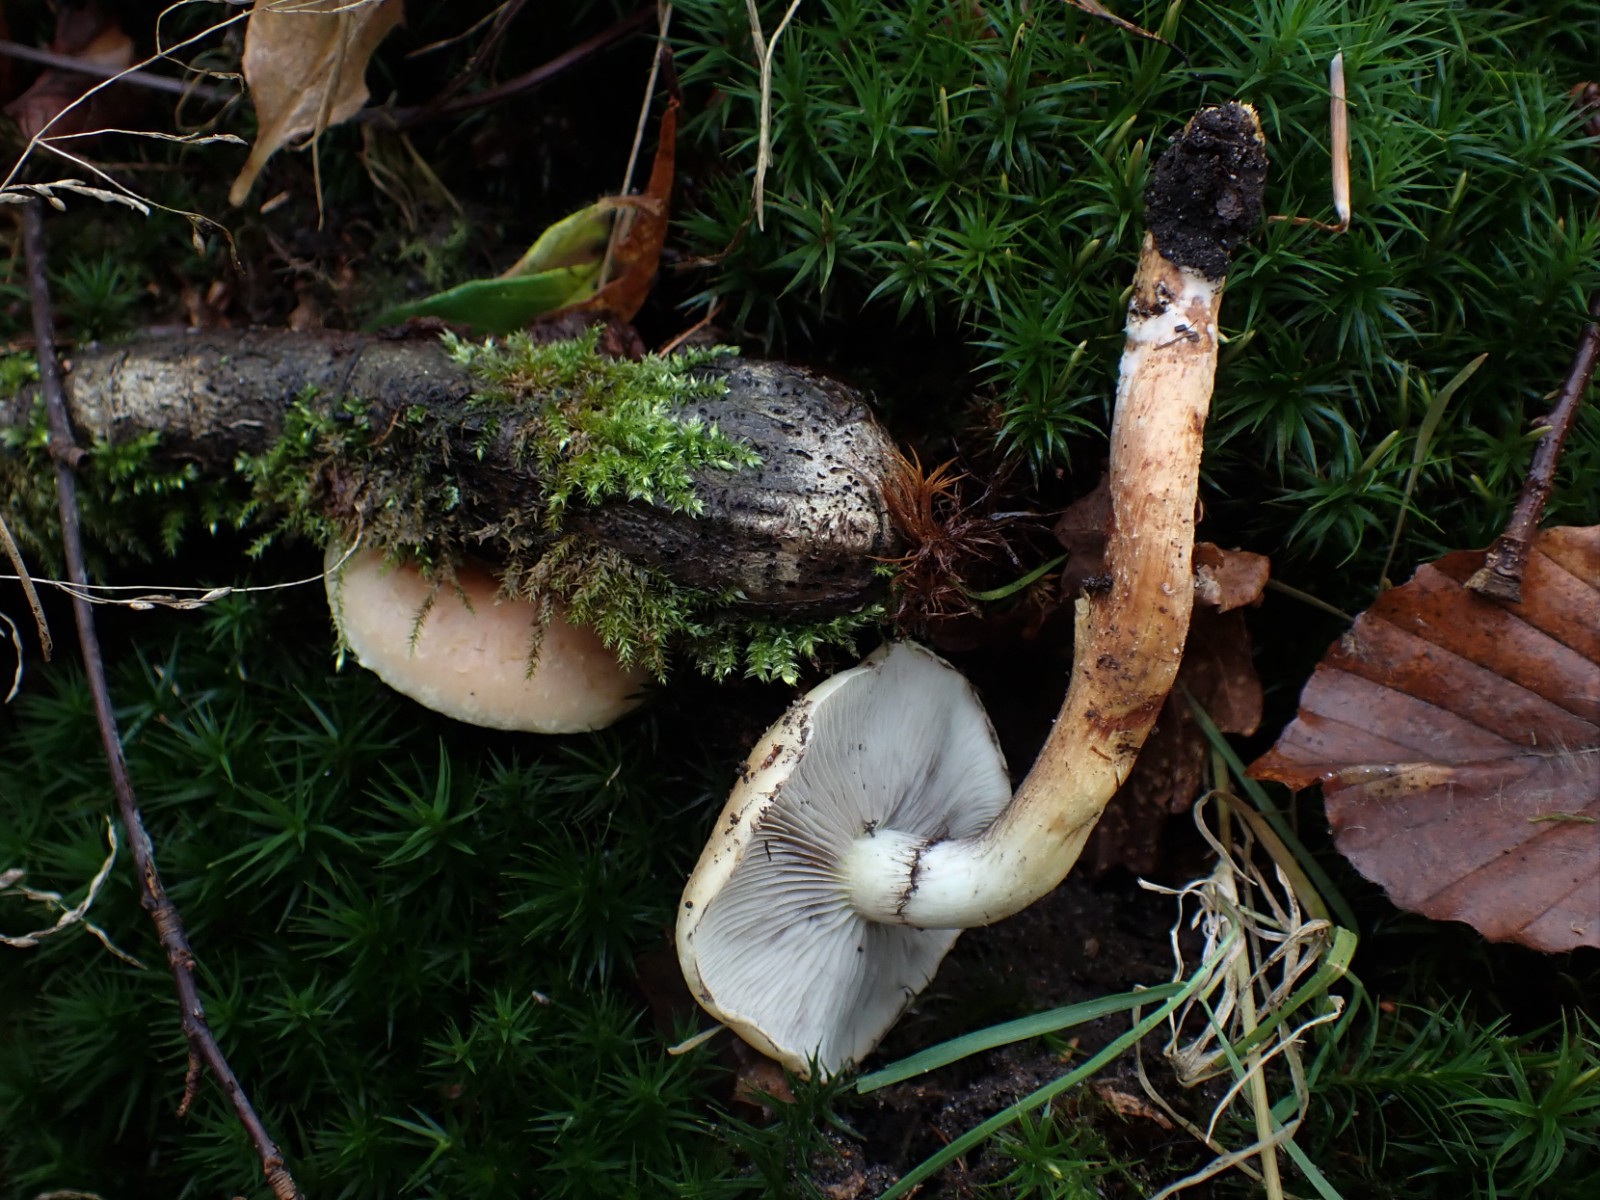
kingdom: Fungi
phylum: Basidiomycota
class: Agaricomycetes
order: Agaricales
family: Strophariaceae
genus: Hypholoma
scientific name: Hypholoma lateritium
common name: teglrød svovlhat
